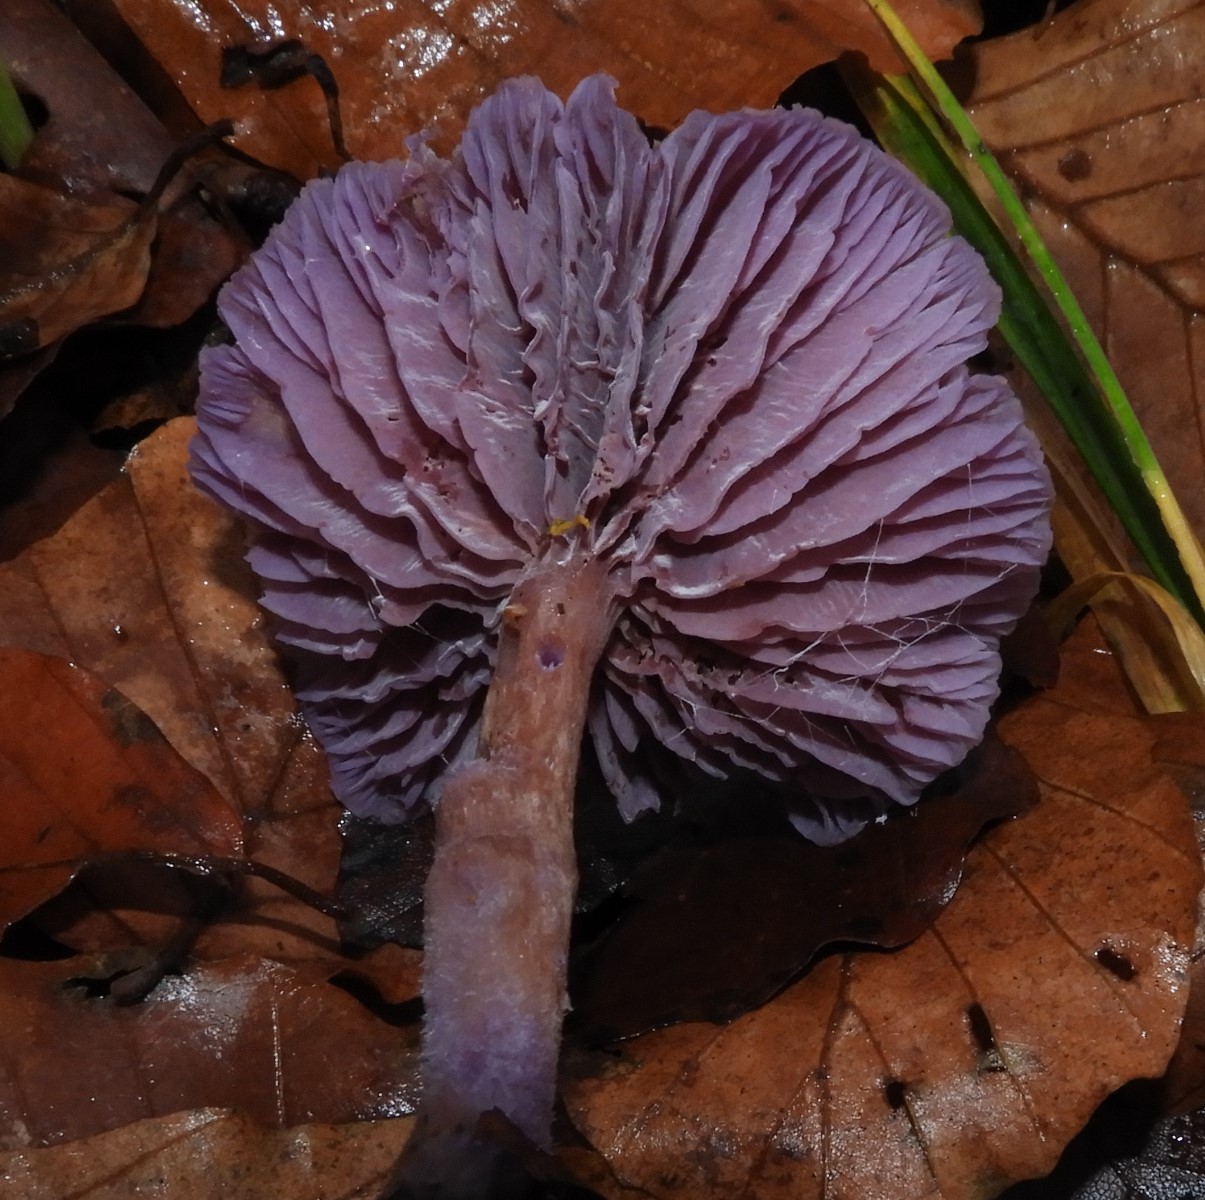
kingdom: Fungi
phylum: Basidiomycota
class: Agaricomycetes
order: Agaricales
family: Hydnangiaceae
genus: Laccaria
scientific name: Laccaria amethystina
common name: violet ametysthat
